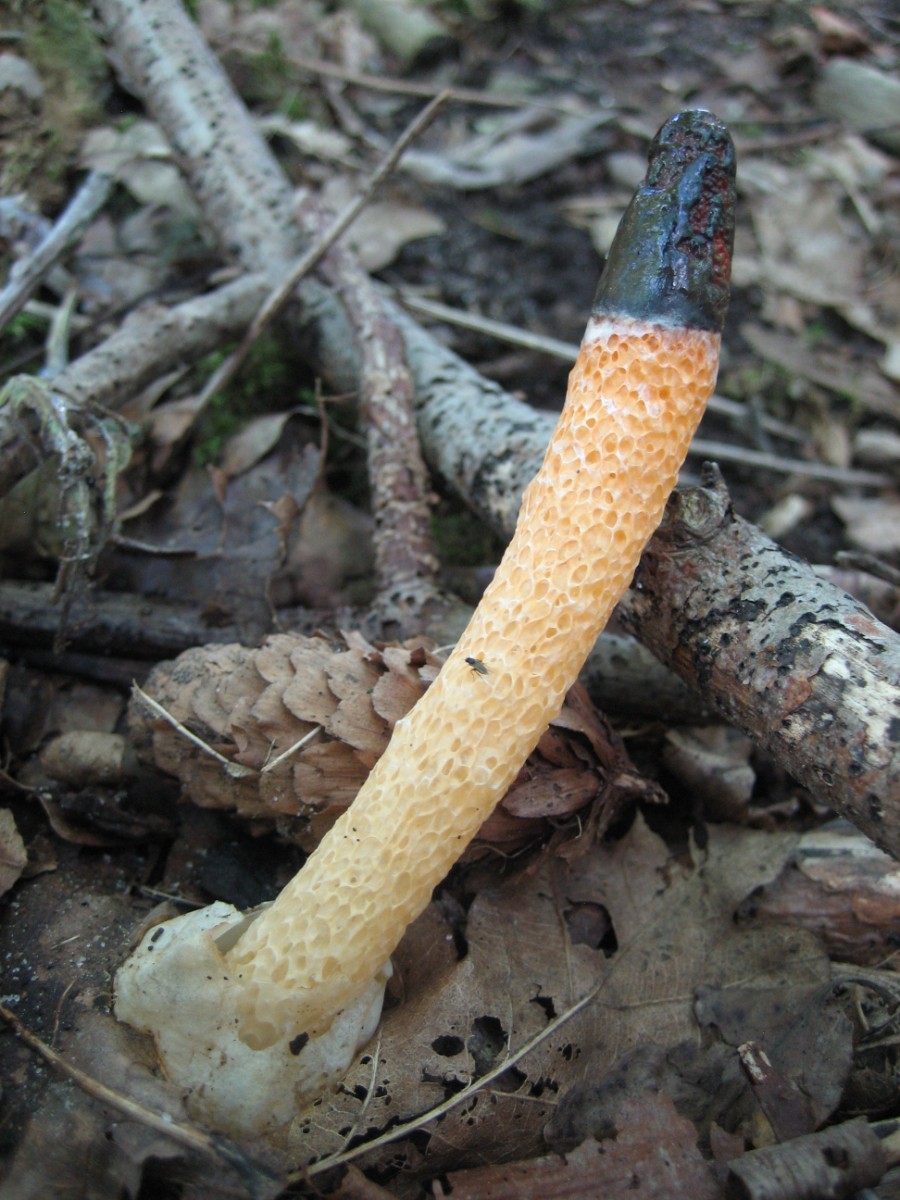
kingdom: Fungi
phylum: Basidiomycota
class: Agaricomycetes
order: Phallales
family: Phallaceae
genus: Mutinus
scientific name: Mutinus caninus
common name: hunde-stinksvamp
